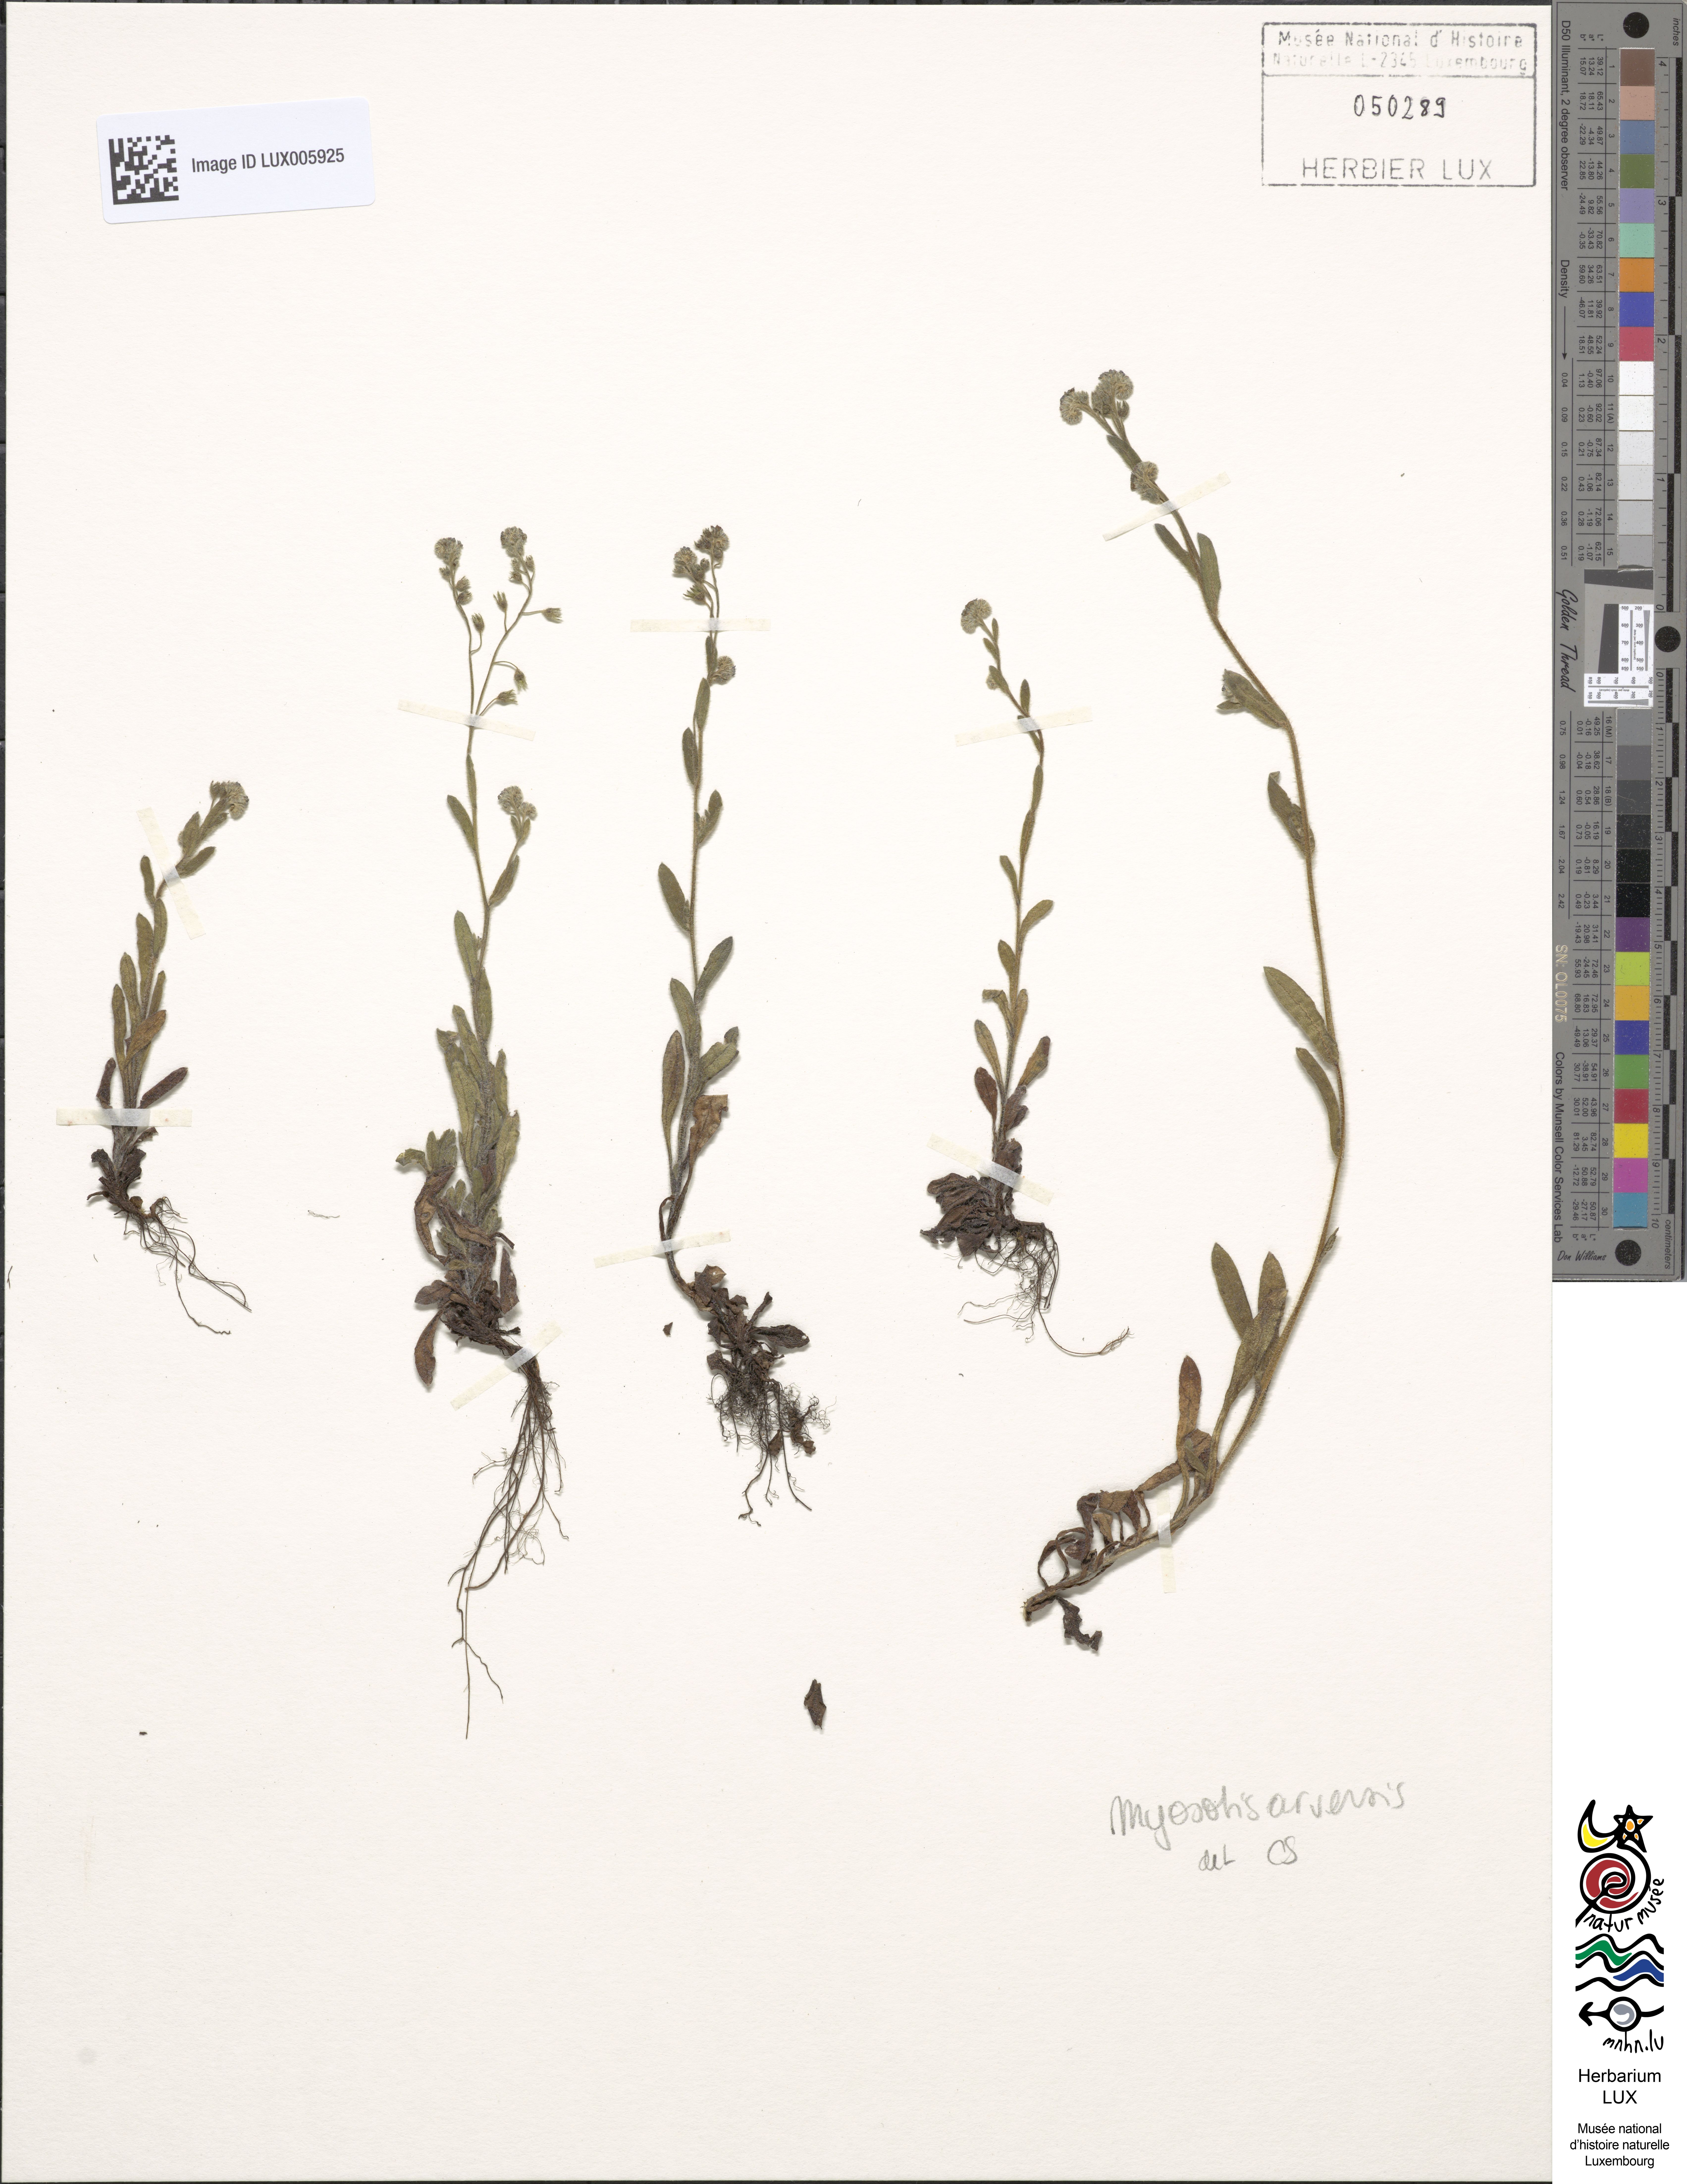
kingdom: Plantae
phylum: Tracheophyta
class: Magnoliopsida
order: Boraginales
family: Boraginaceae
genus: Myosotis
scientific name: Myosotis arvensis
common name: Field forget-me-not
